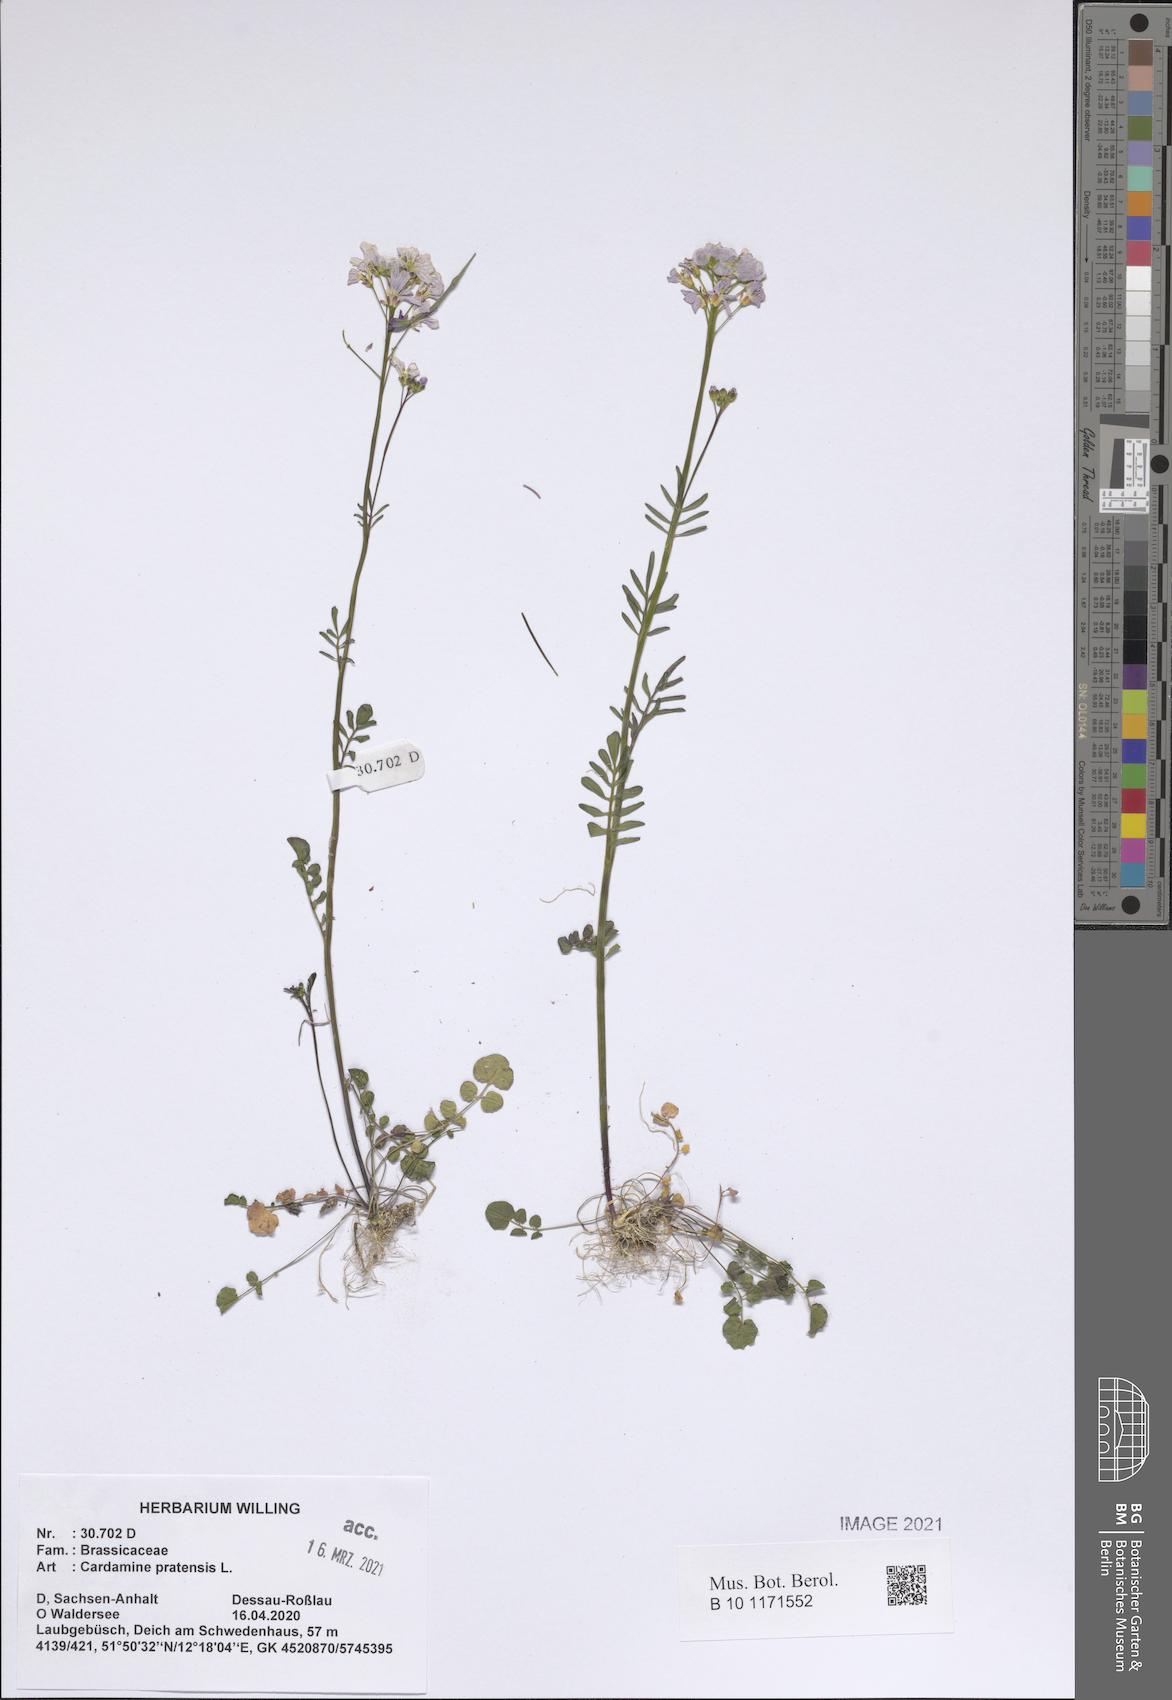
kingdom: Plantae
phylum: Tracheophyta
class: Magnoliopsida
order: Brassicales
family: Brassicaceae
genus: Cardamine
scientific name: Cardamine pratensis
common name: Cuckoo flower
